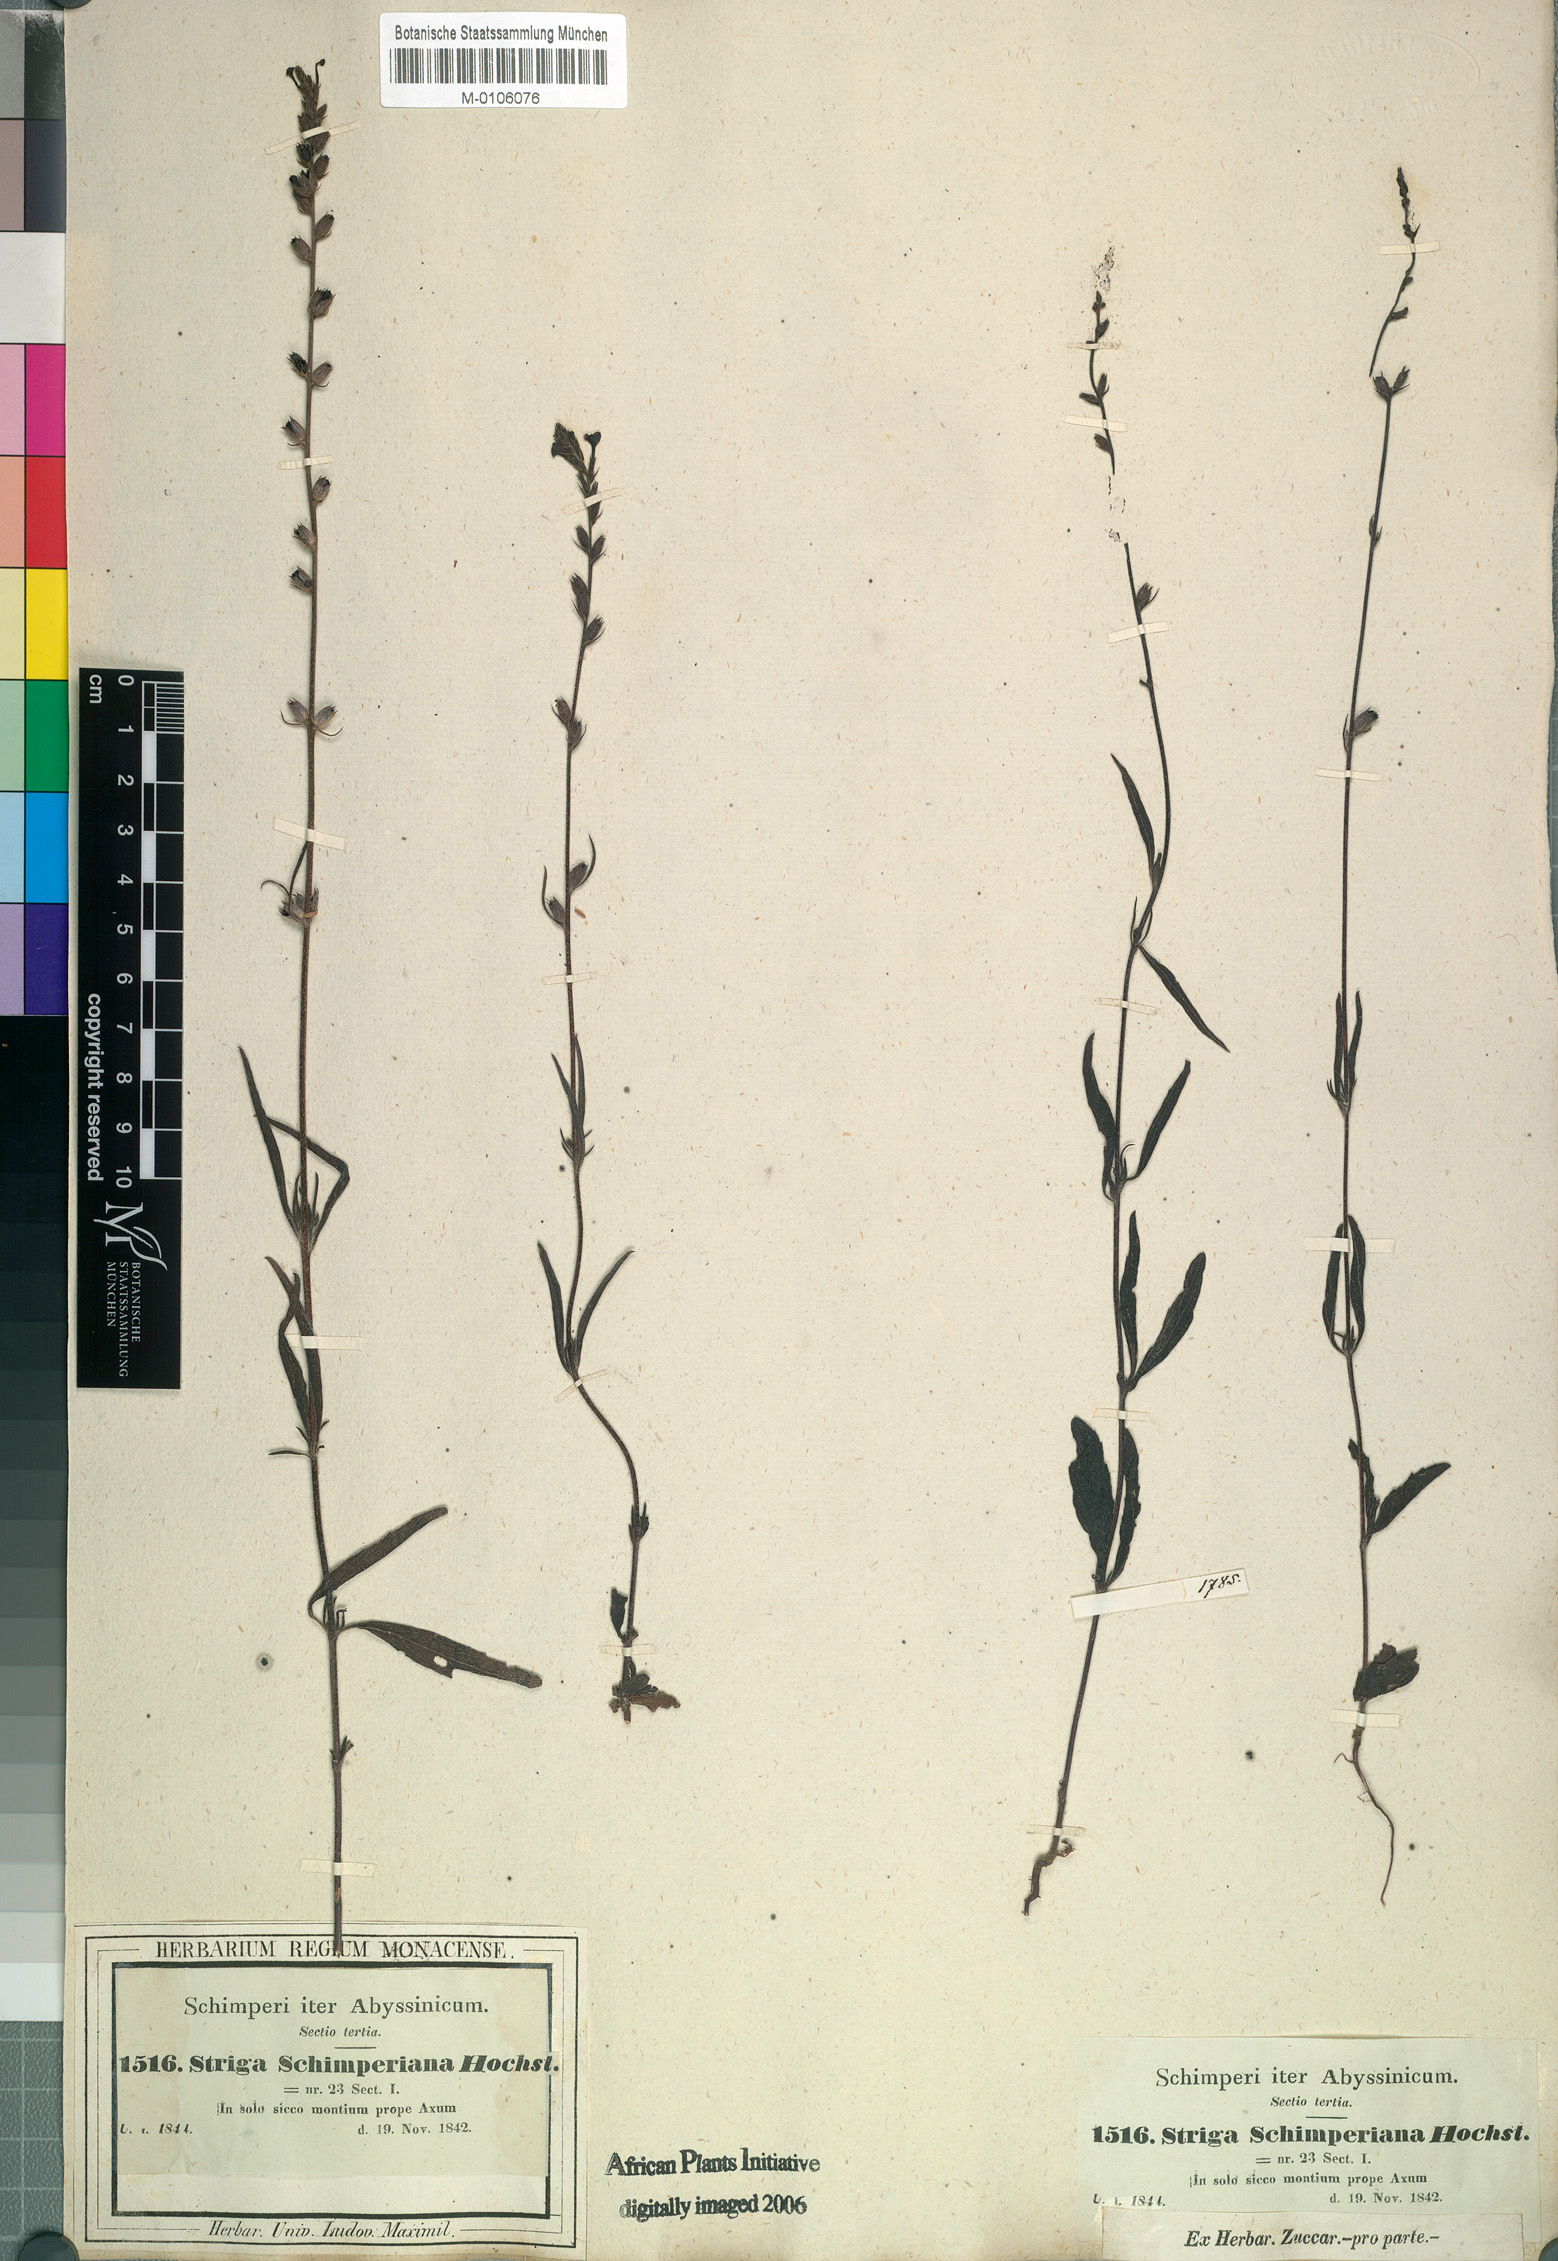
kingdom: Plantae
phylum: Tracheophyta
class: Magnoliopsida
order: Lamiales
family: Orobanchaceae
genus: Buchnera
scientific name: Buchnera hispida
